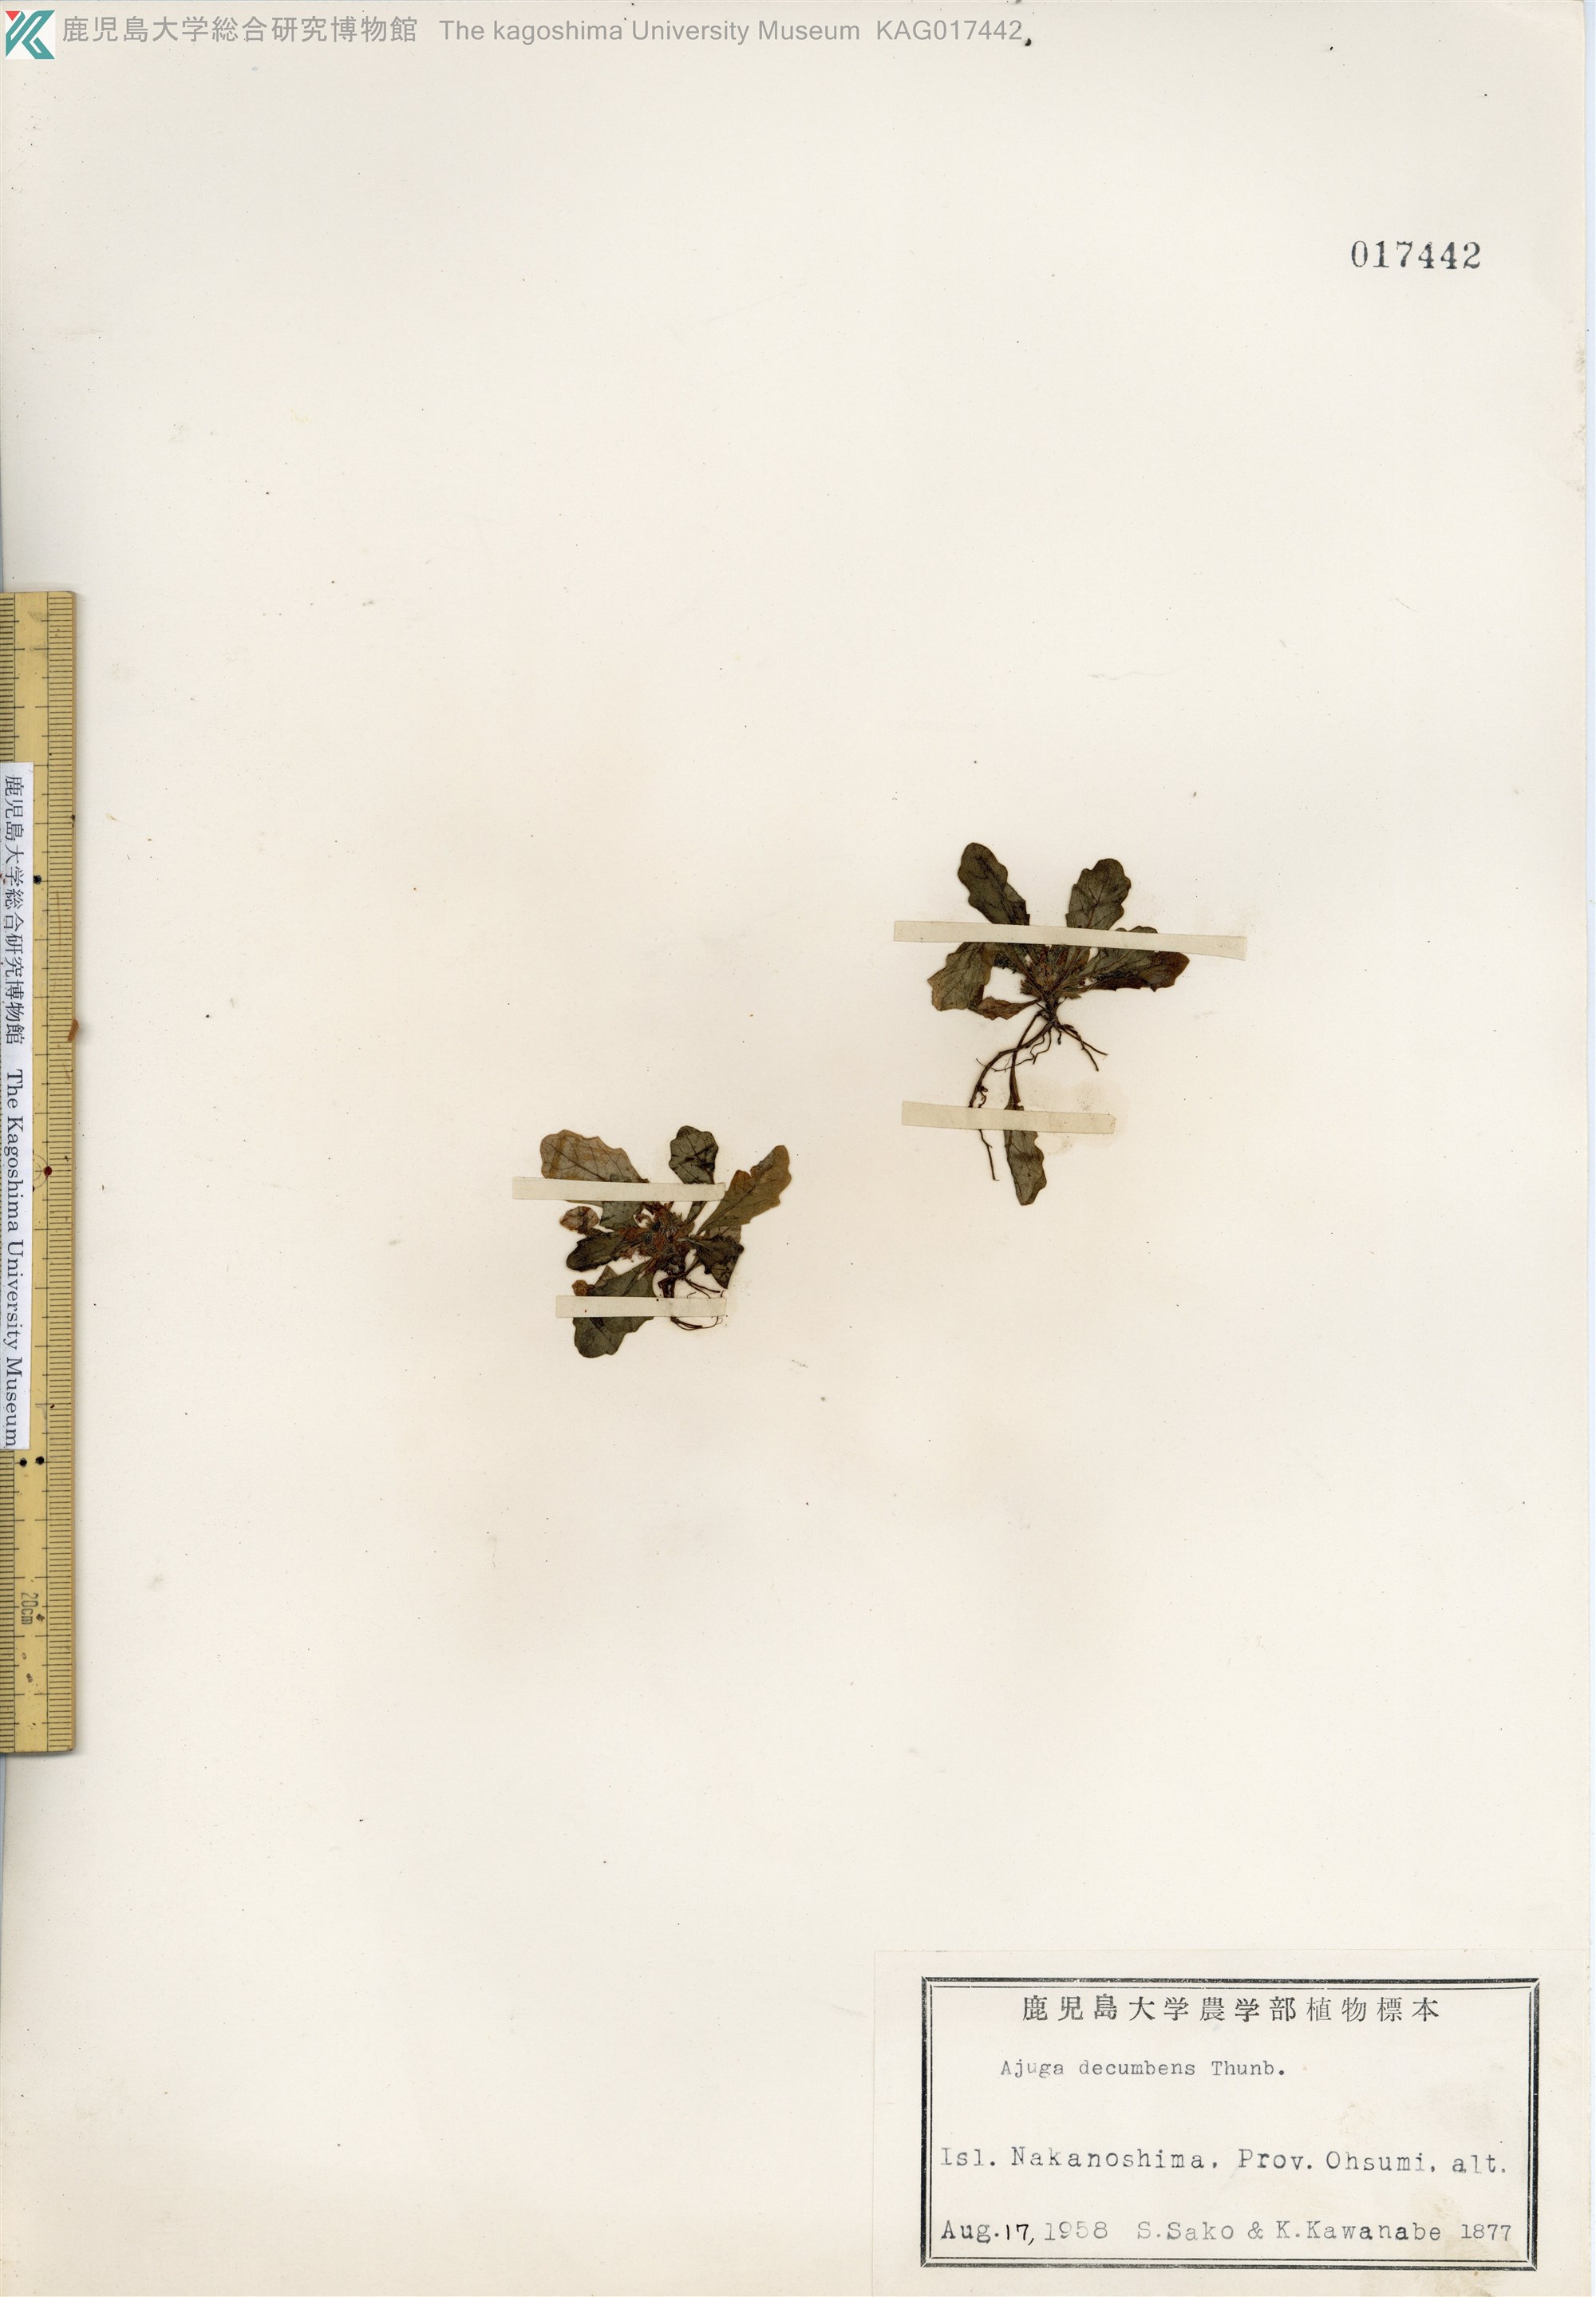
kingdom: Plantae
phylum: Tracheophyta
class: Magnoliopsida
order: Lamiales
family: Lamiaceae
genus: Ajuga
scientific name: Ajuga decumbens
